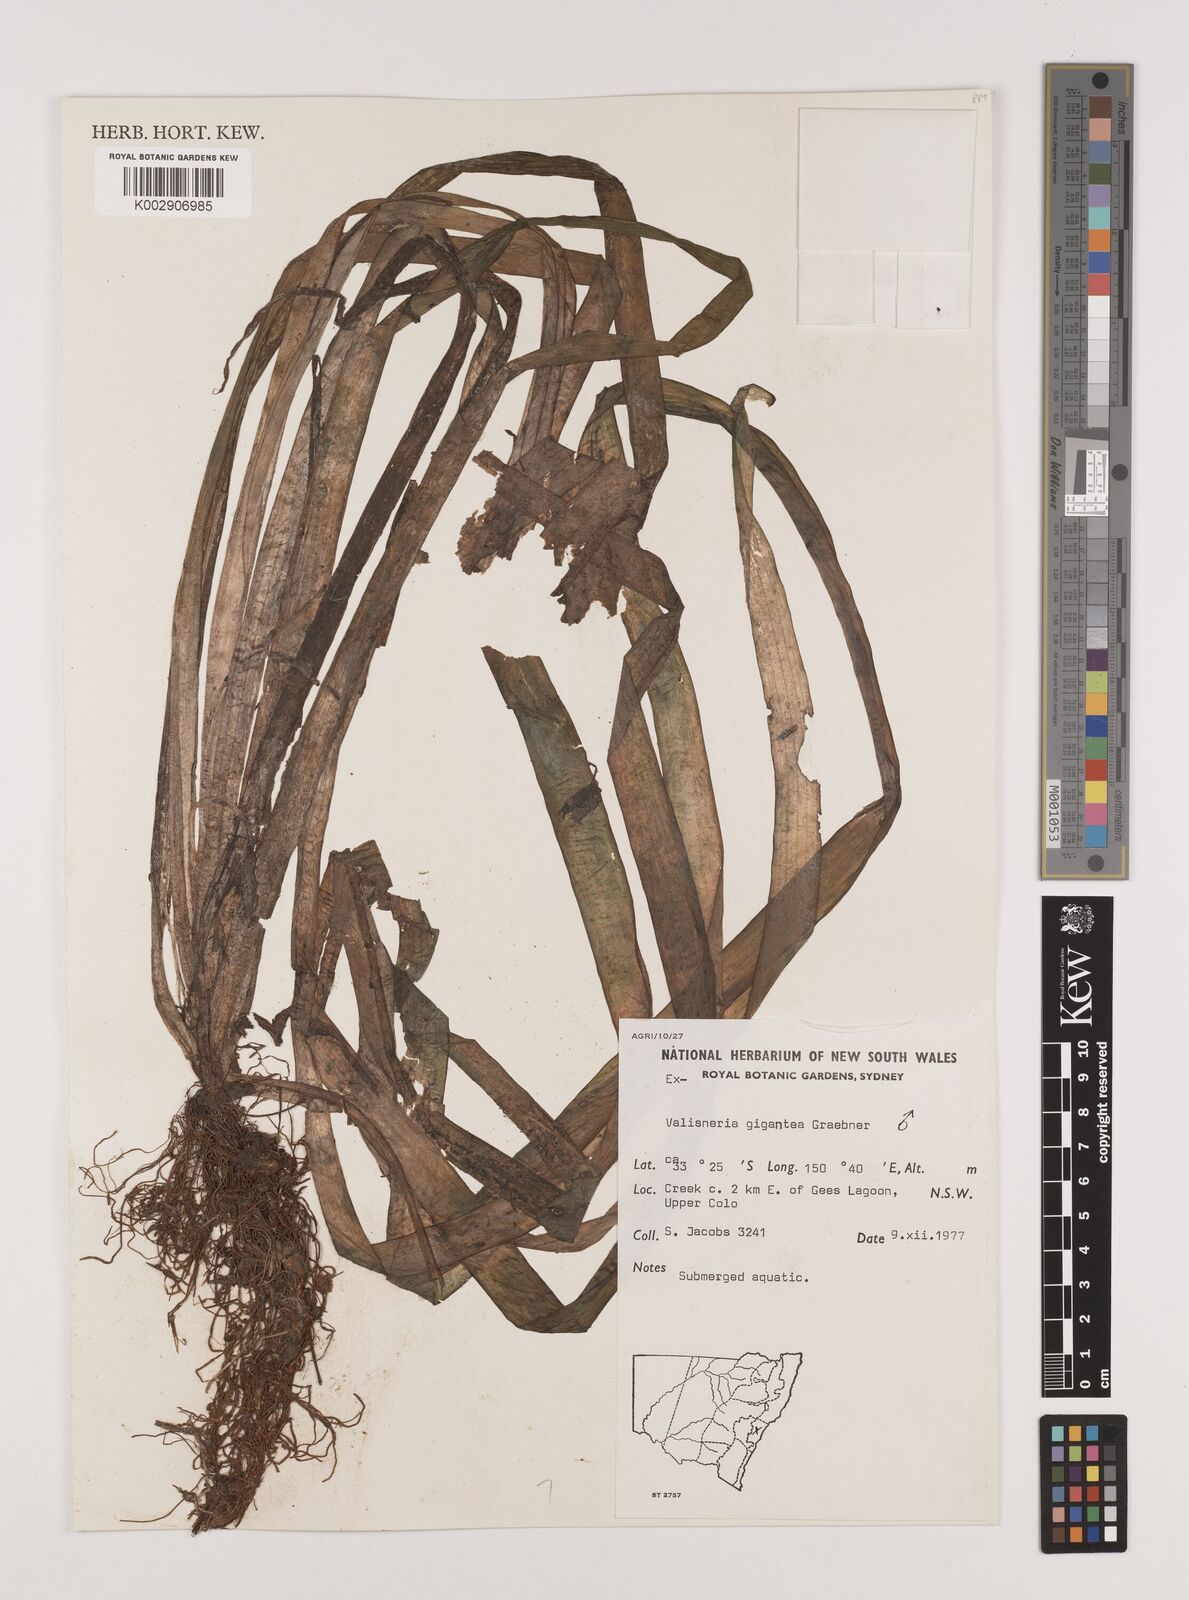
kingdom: Plantae
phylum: Tracheophyta
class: Liliopsida
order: Alismatales
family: Hydrocharitaceae
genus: Vallisneria
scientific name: Vallisneria nana
